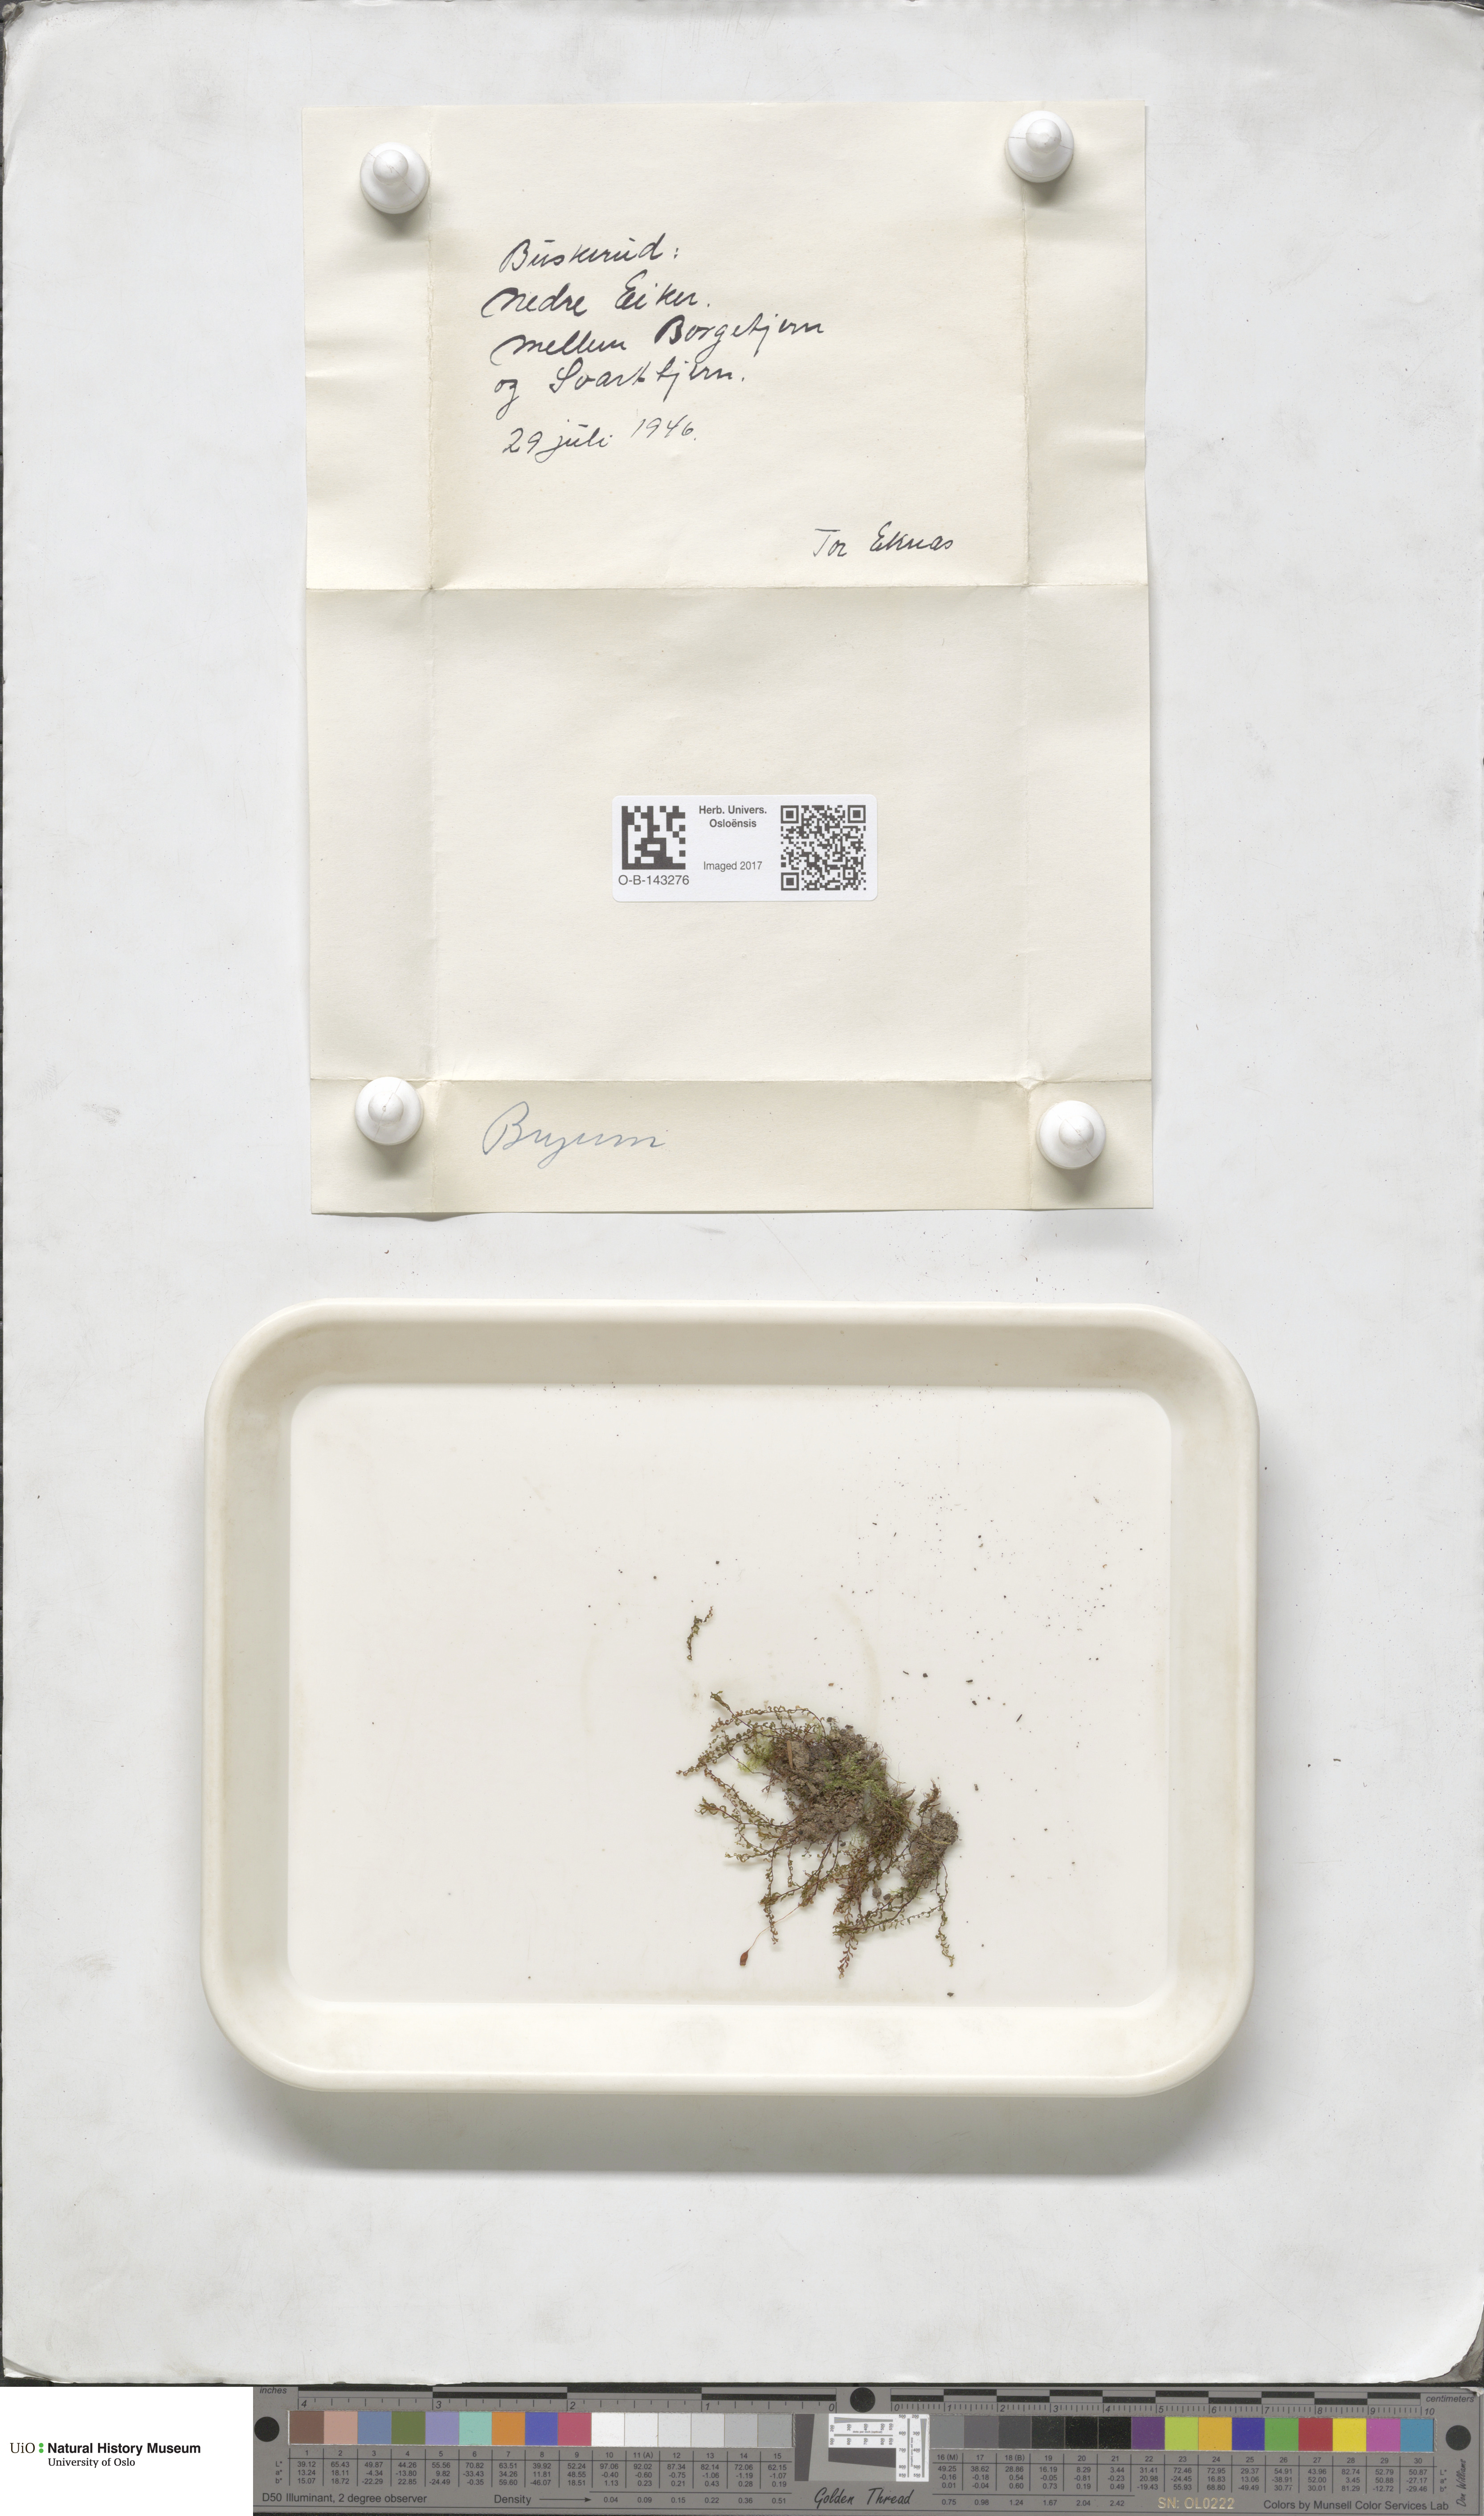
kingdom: Plantae
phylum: Bryophyta
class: Bryopsida
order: Bryales
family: Bryaceae
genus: Bryum
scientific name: Bryum
